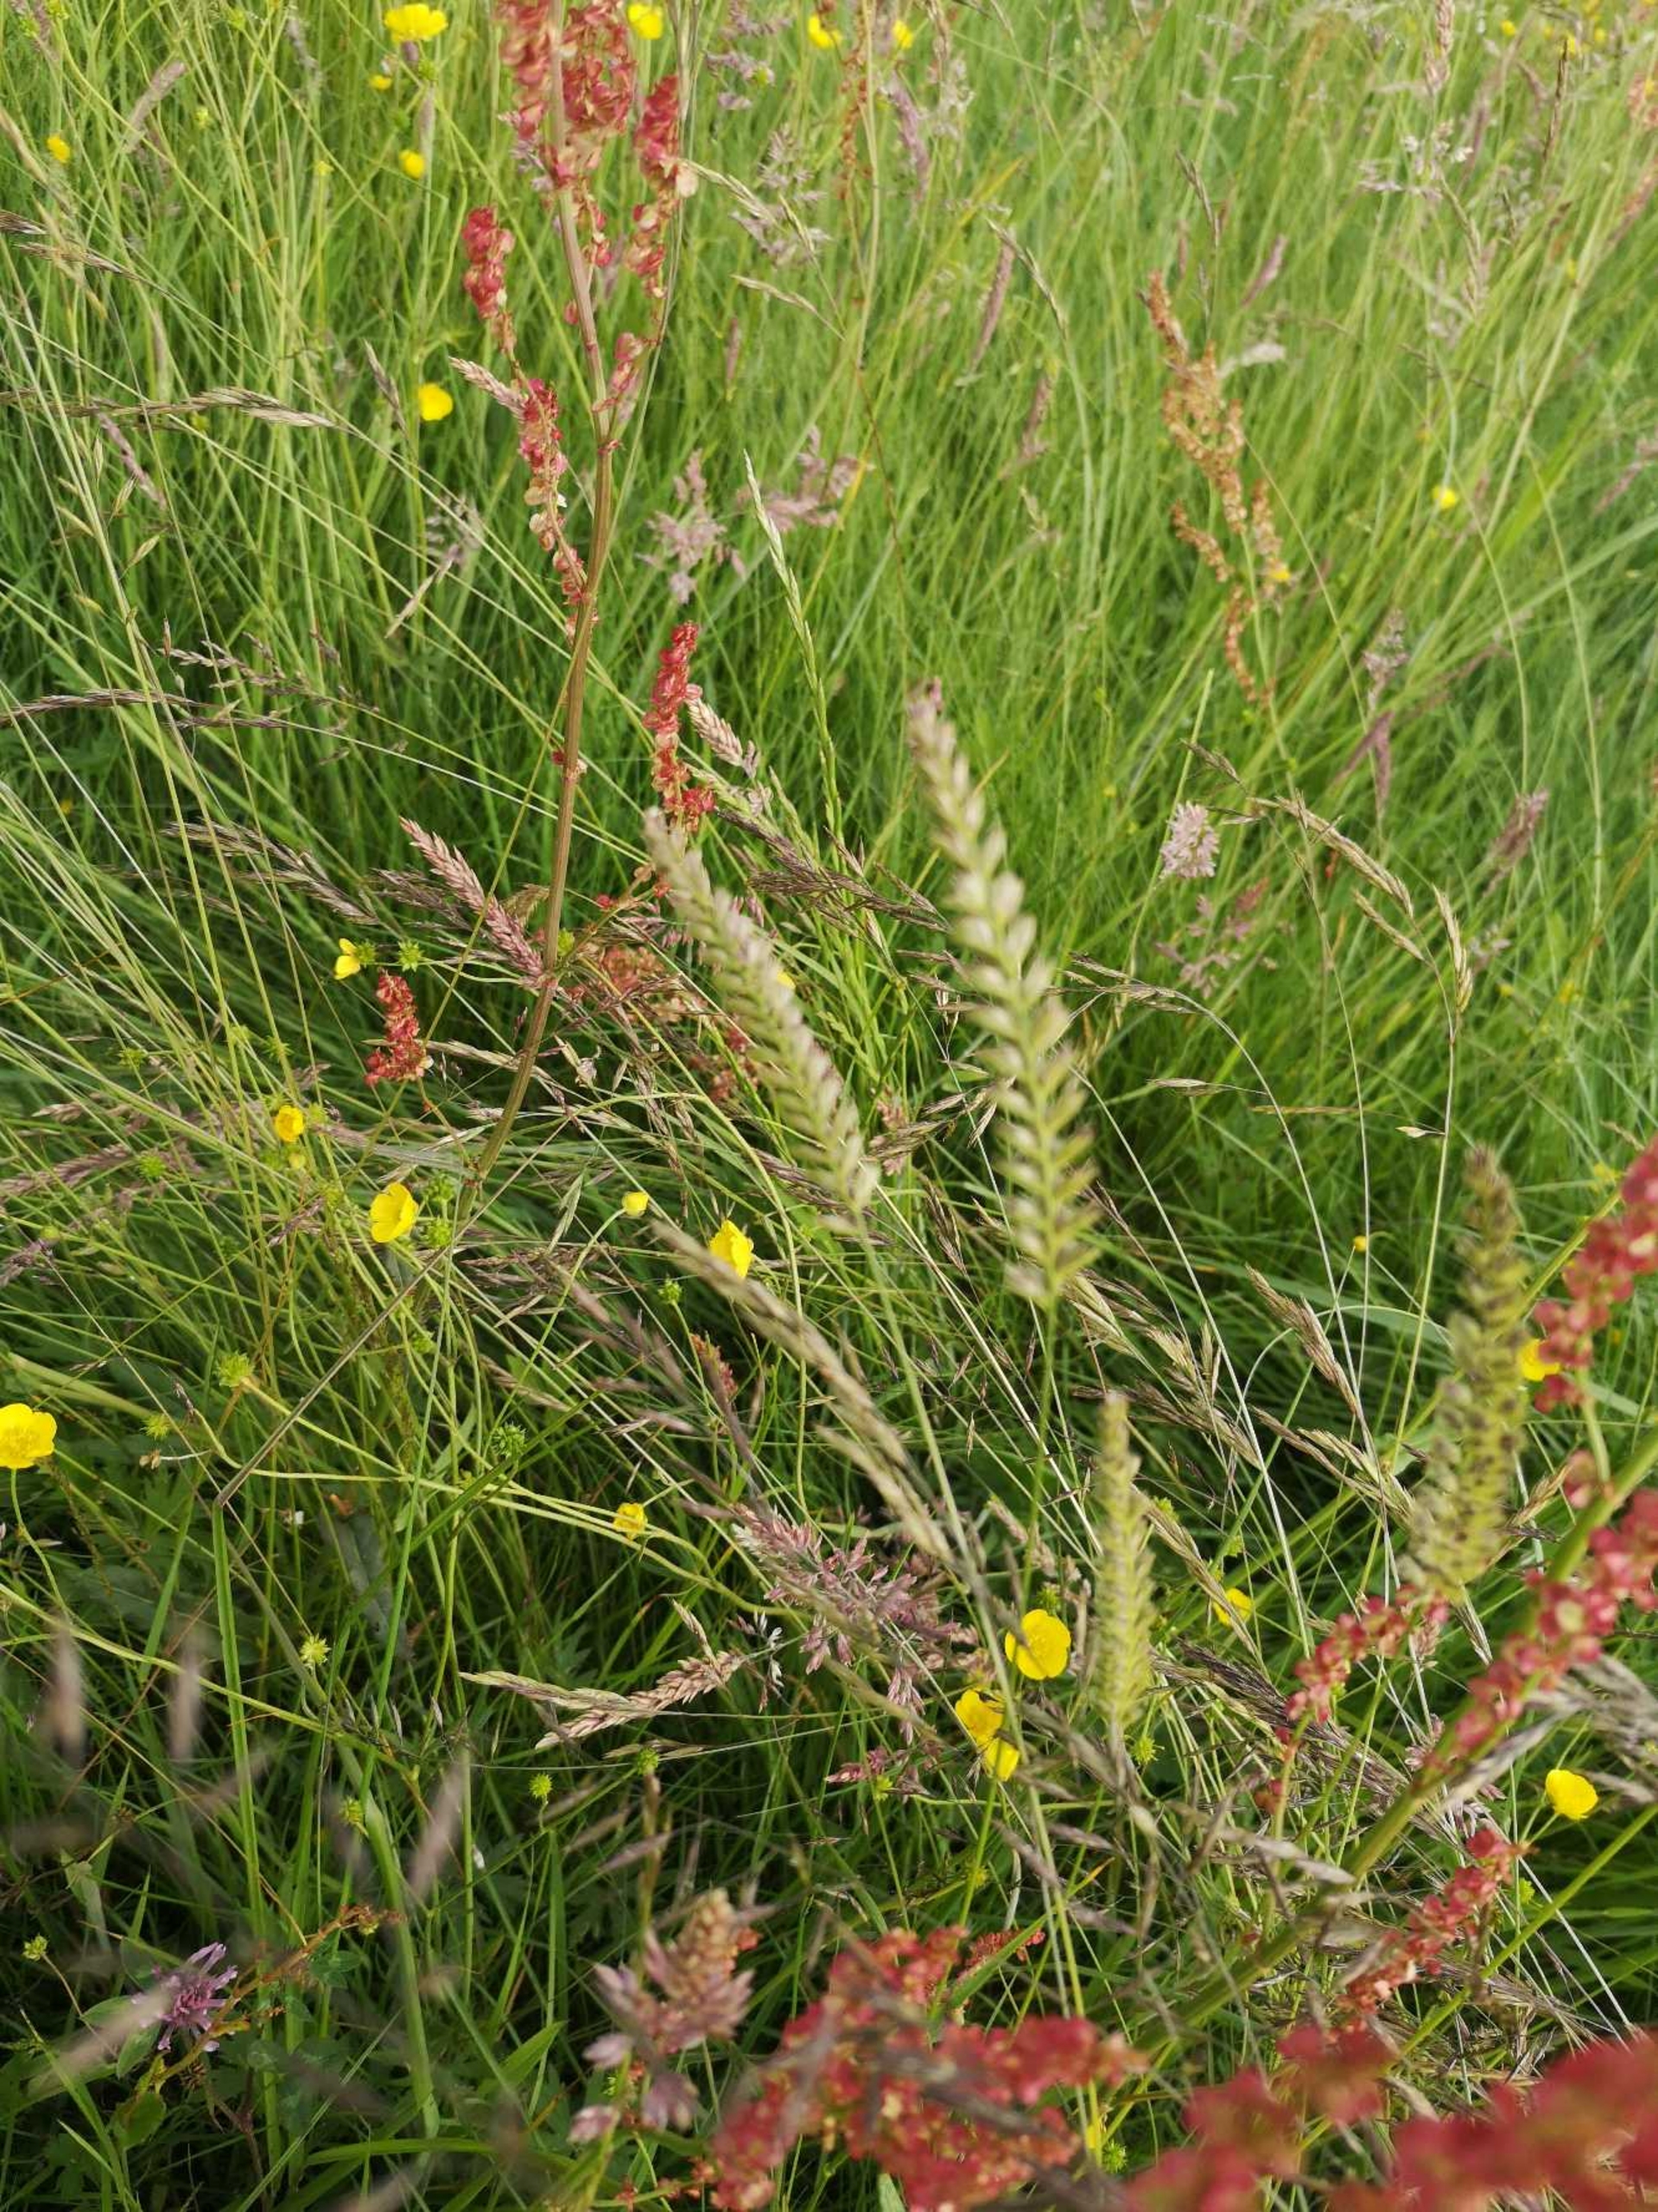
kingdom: Plantae
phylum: Tracheophyta
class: Liliopsida
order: Poales
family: Poaceae
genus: Cynosurus
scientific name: Cynosurus cristatus
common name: Kamgræs
